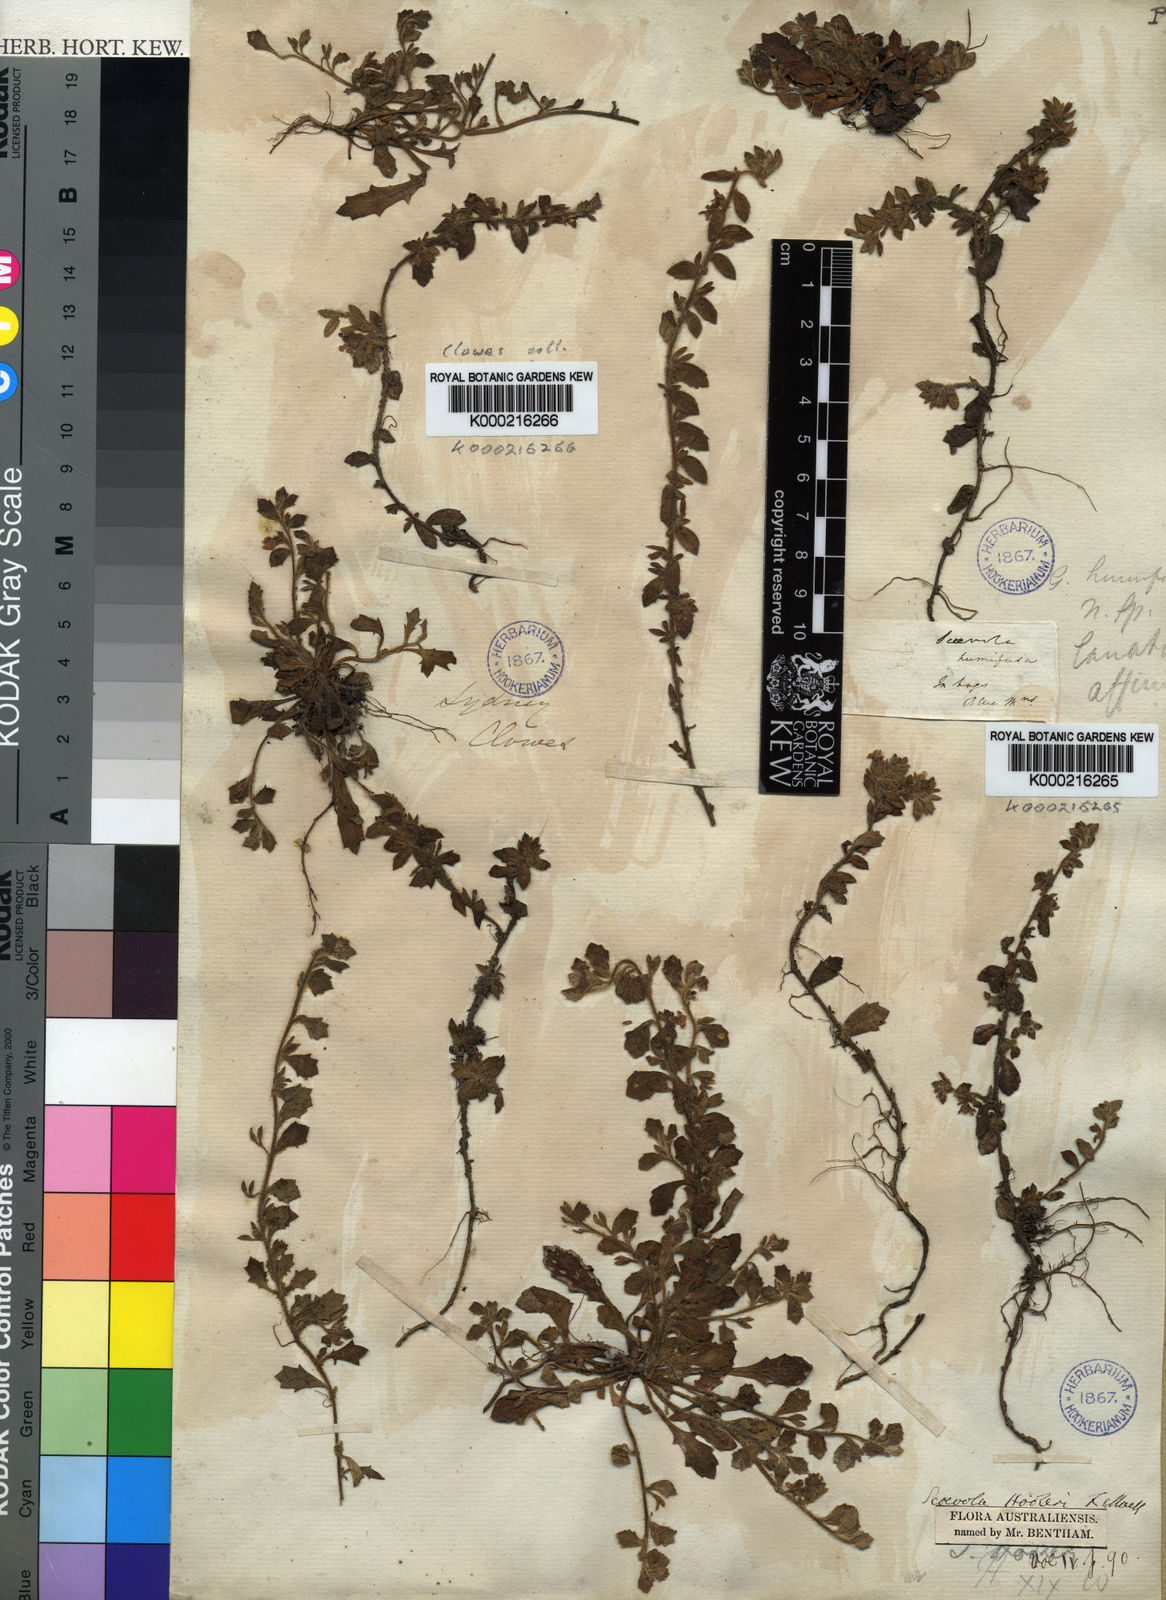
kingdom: Plantae
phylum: Tracheophyta
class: Magnoliopsida
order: Asterales
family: Goodeniaceae
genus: Scaevola
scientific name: Scaevola hookeri
